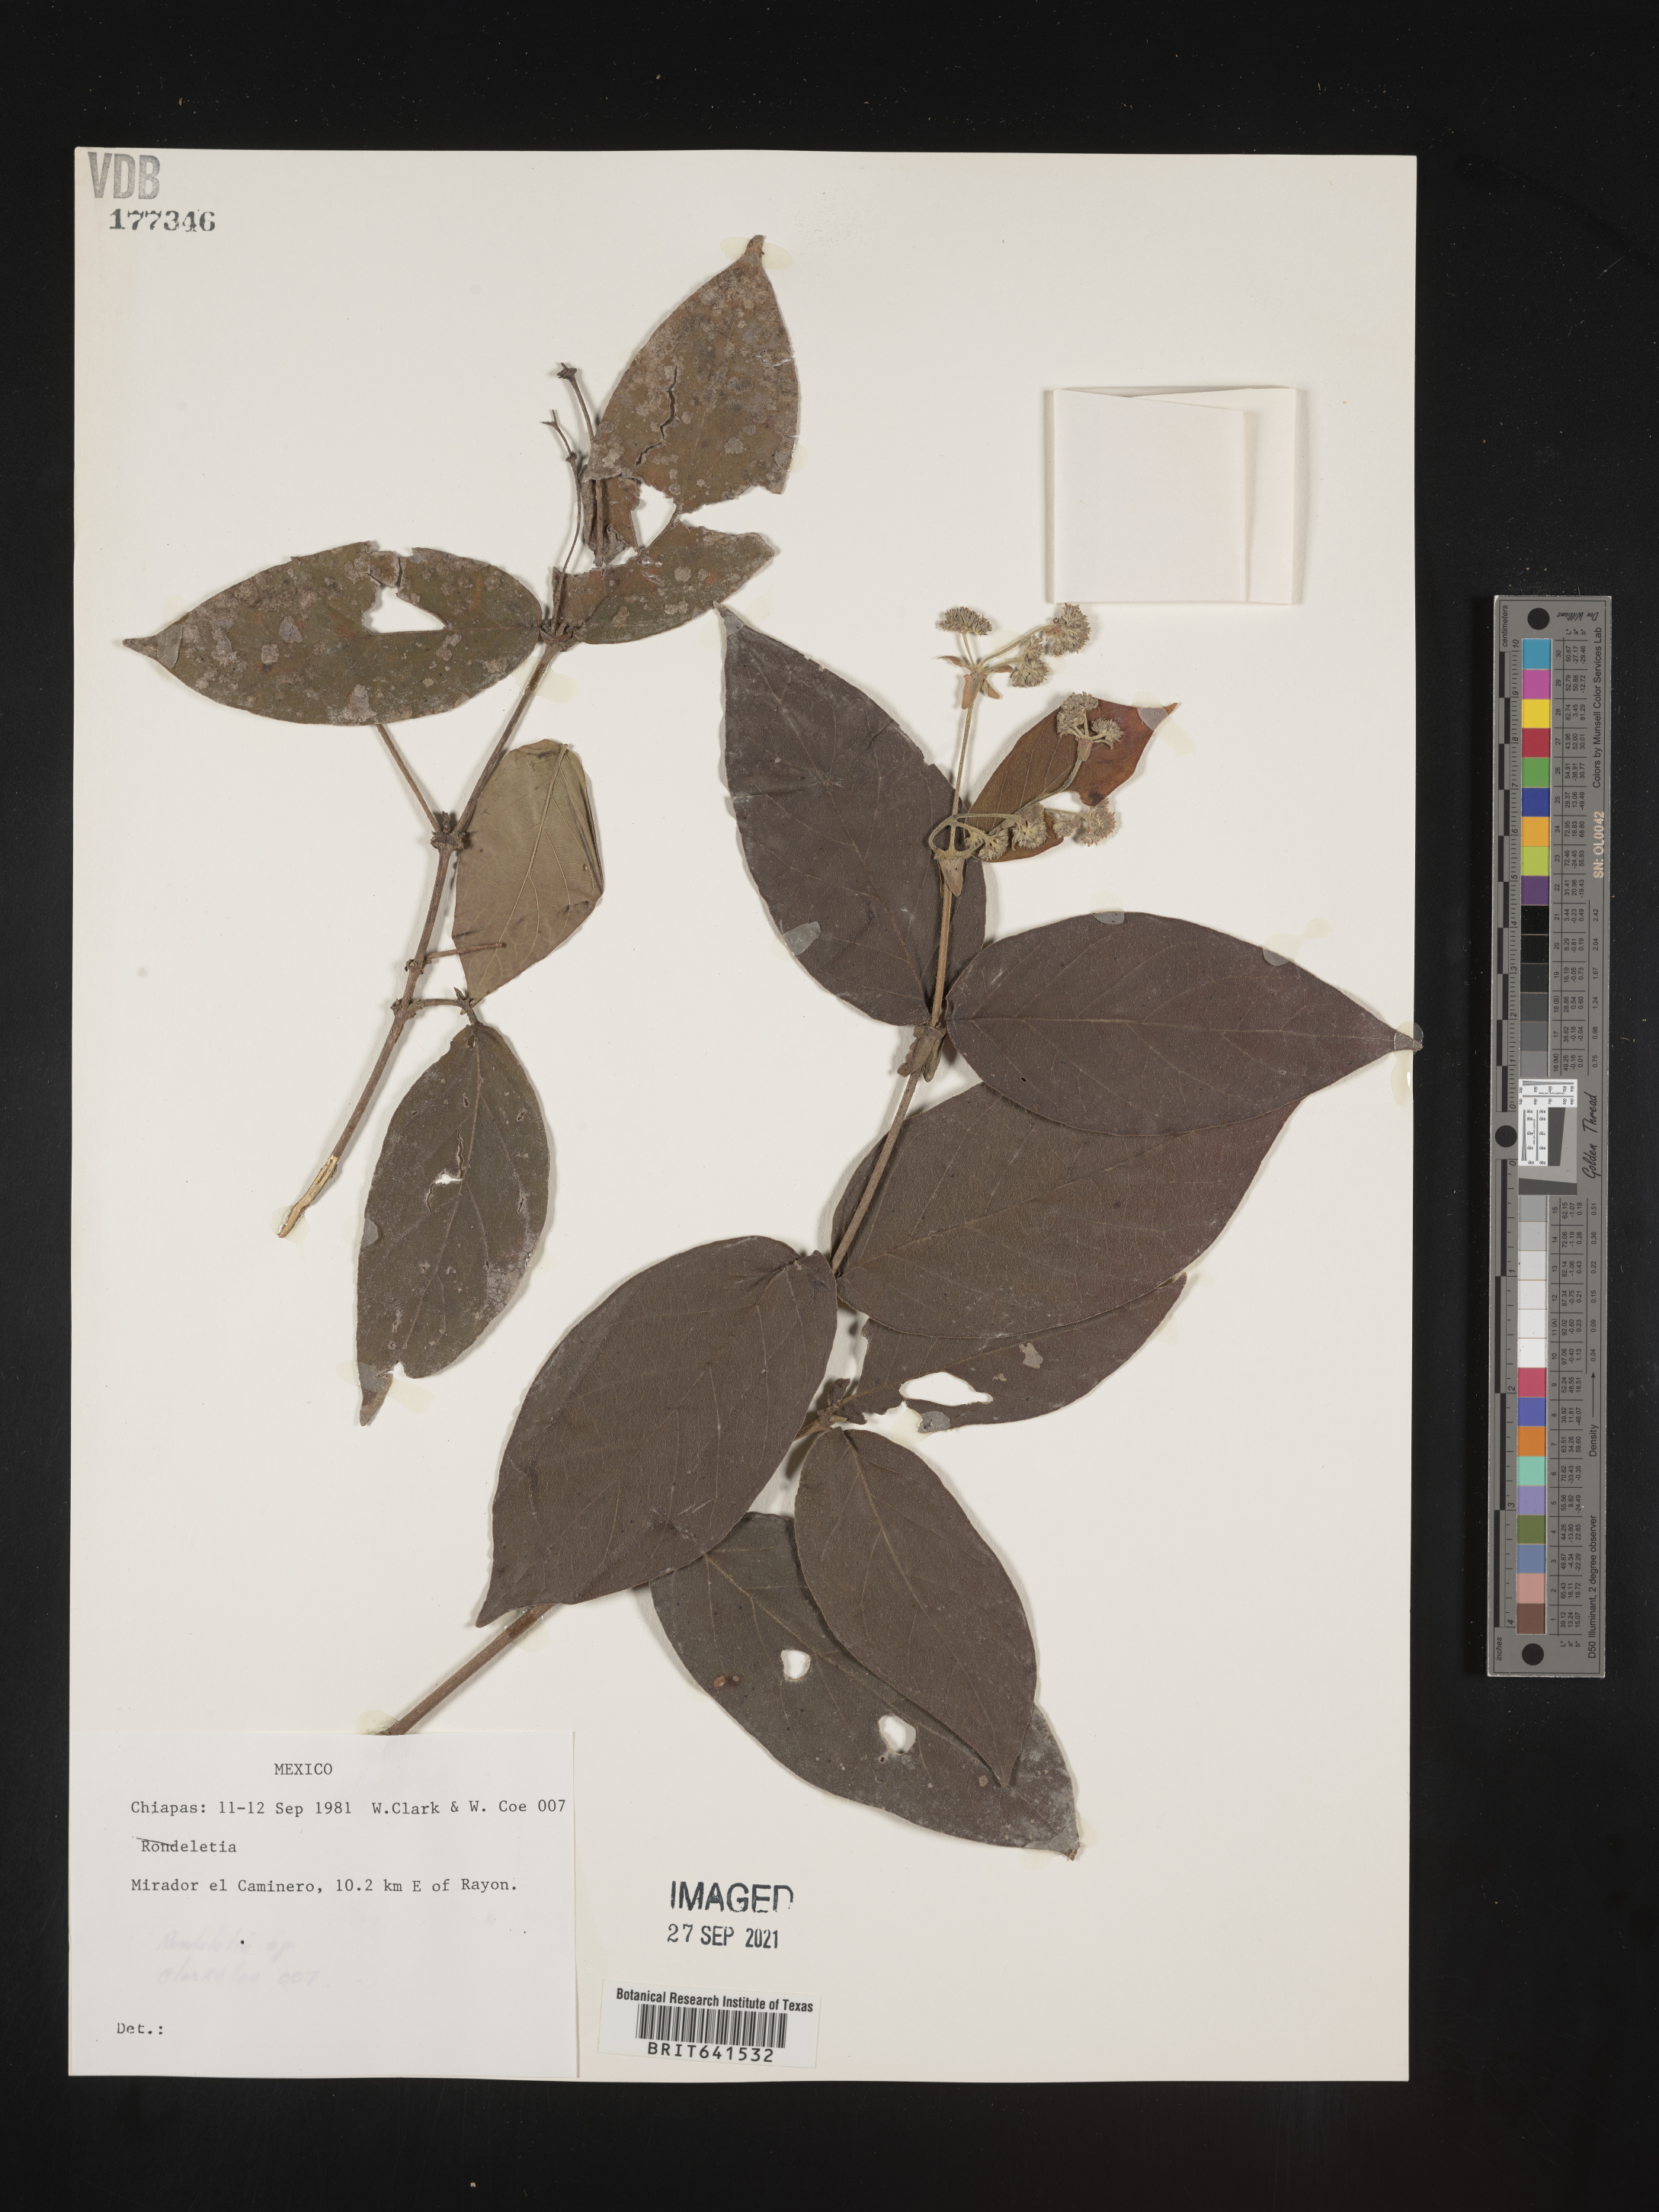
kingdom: Plantae
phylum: Tracheophyta
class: Magnoliopsida
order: Gentianales
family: Rubiaceae
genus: Rondeletia
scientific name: Rondeletia
